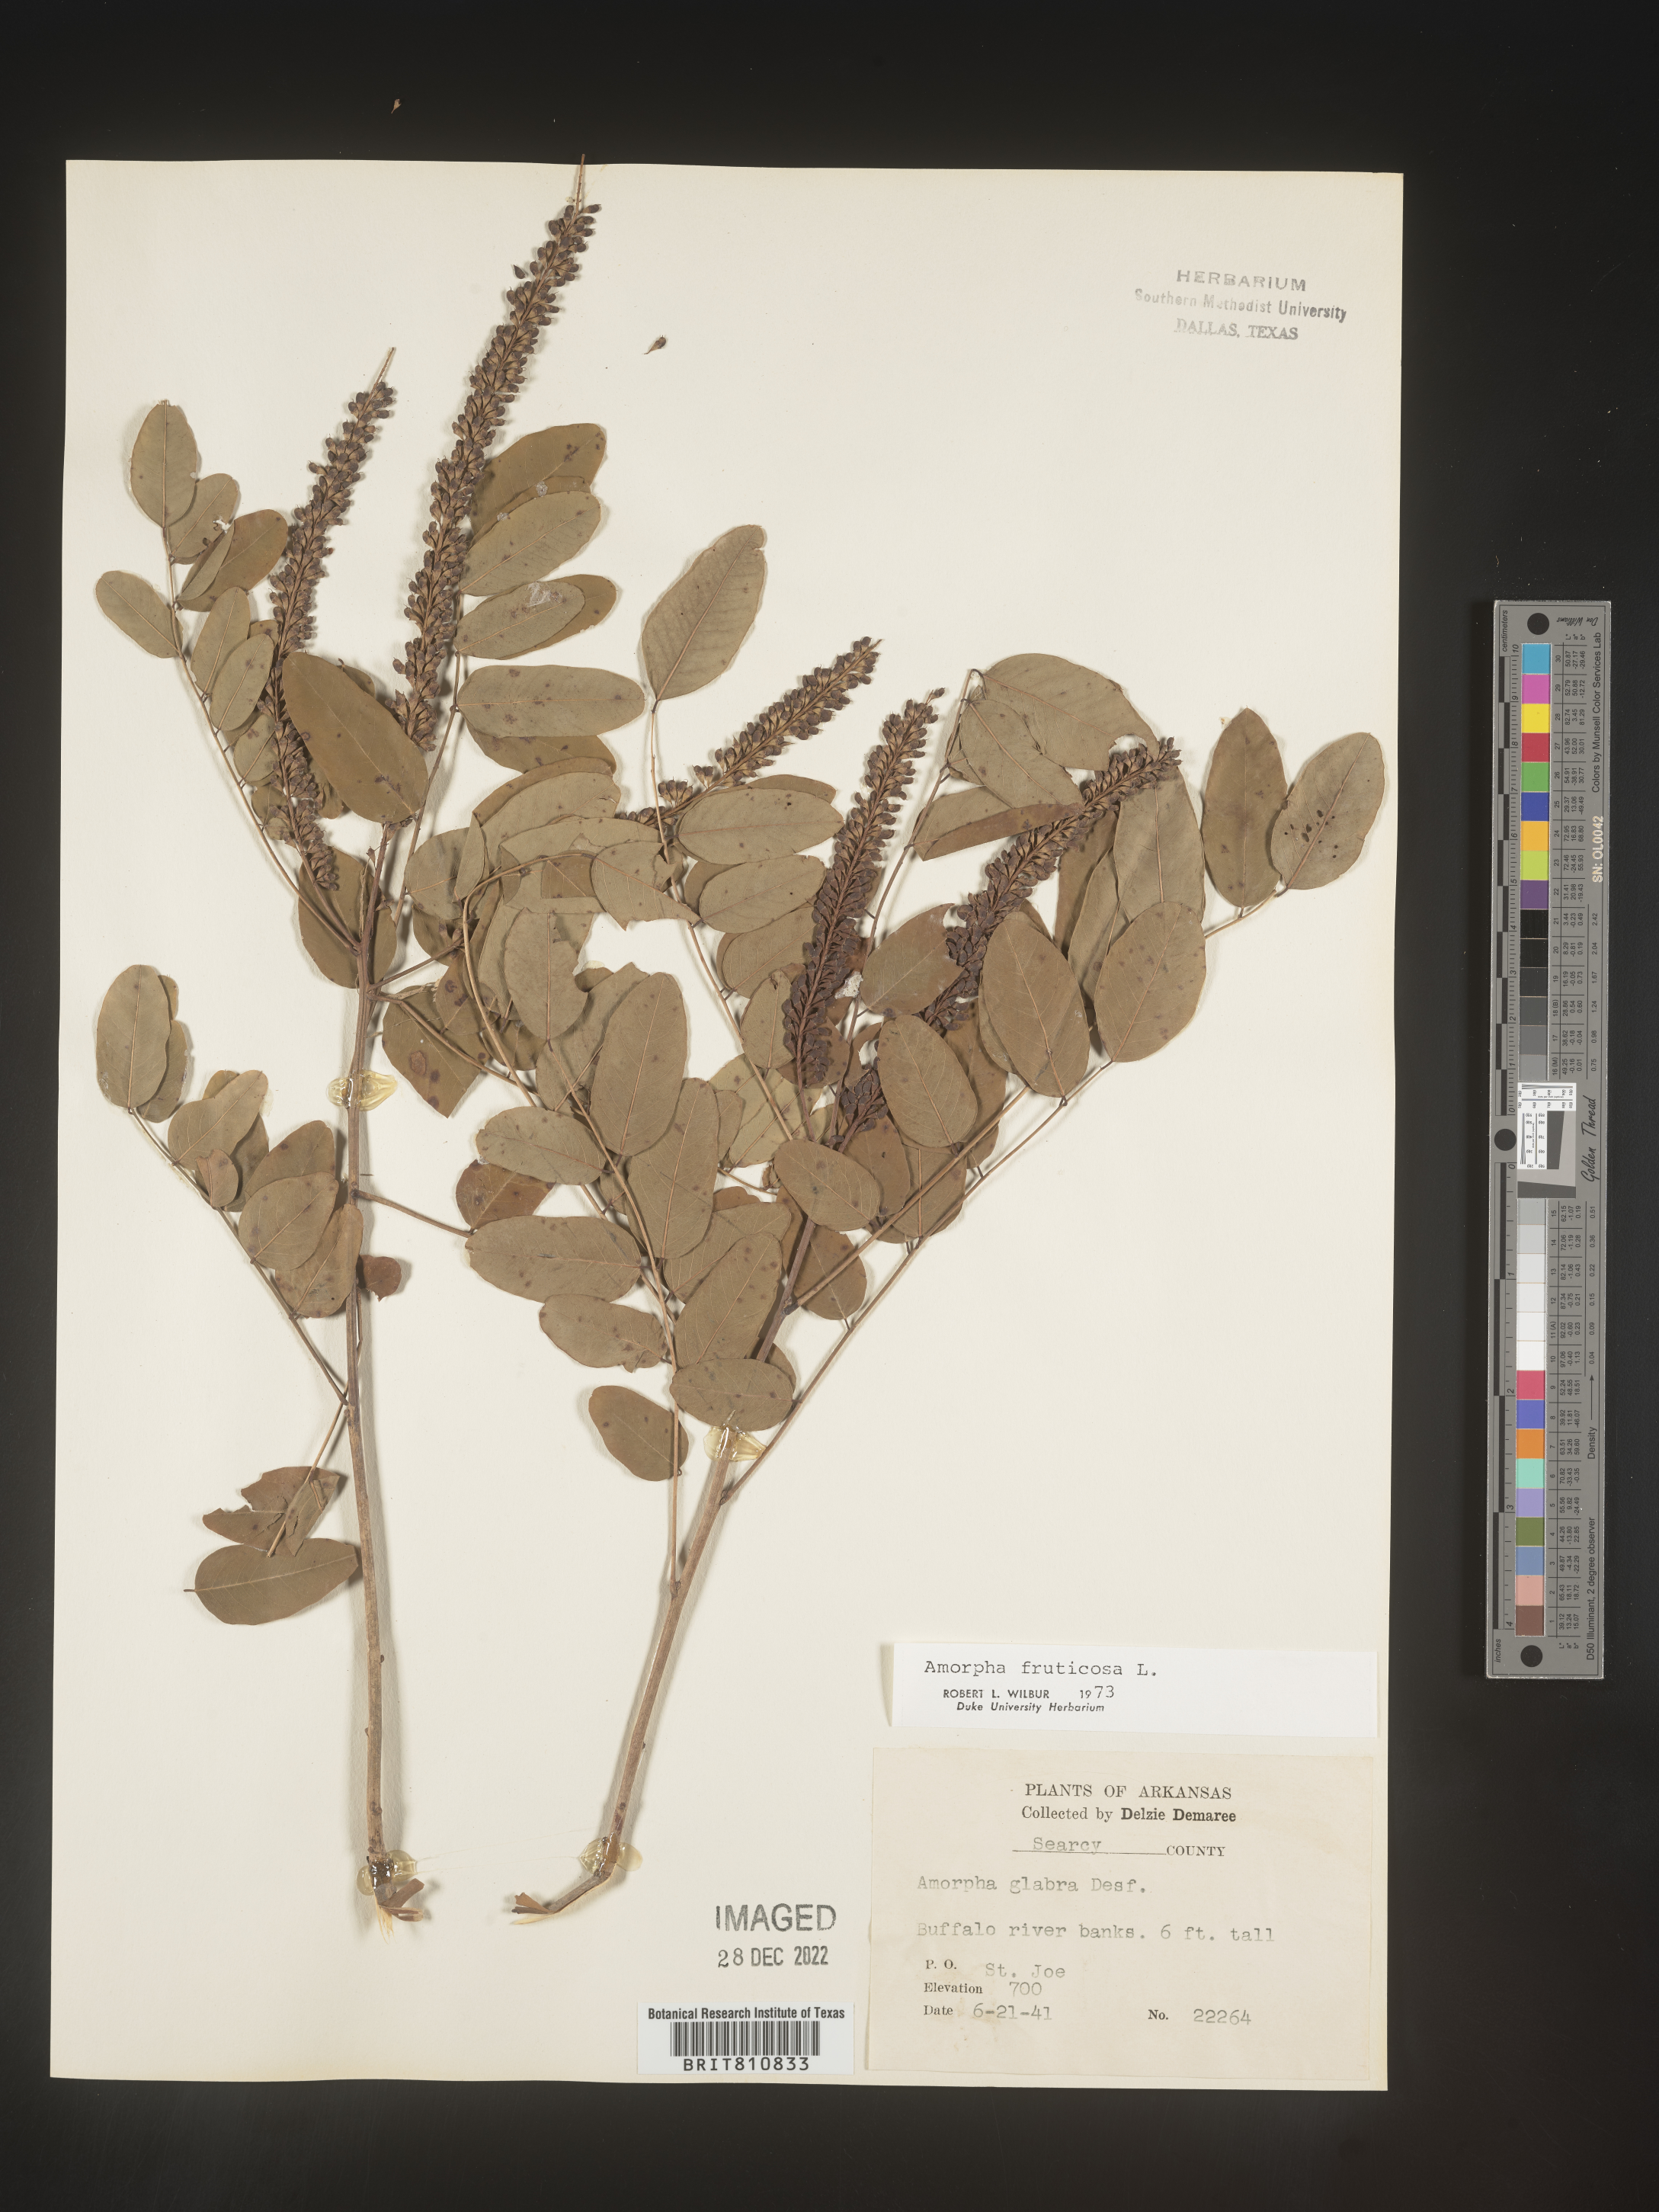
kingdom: Plantae
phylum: Tracheophyta
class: Magnoliopsida
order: Fabales
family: Fabaceae
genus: Amorpha
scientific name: Amorpha fruticosa
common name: False indigo
